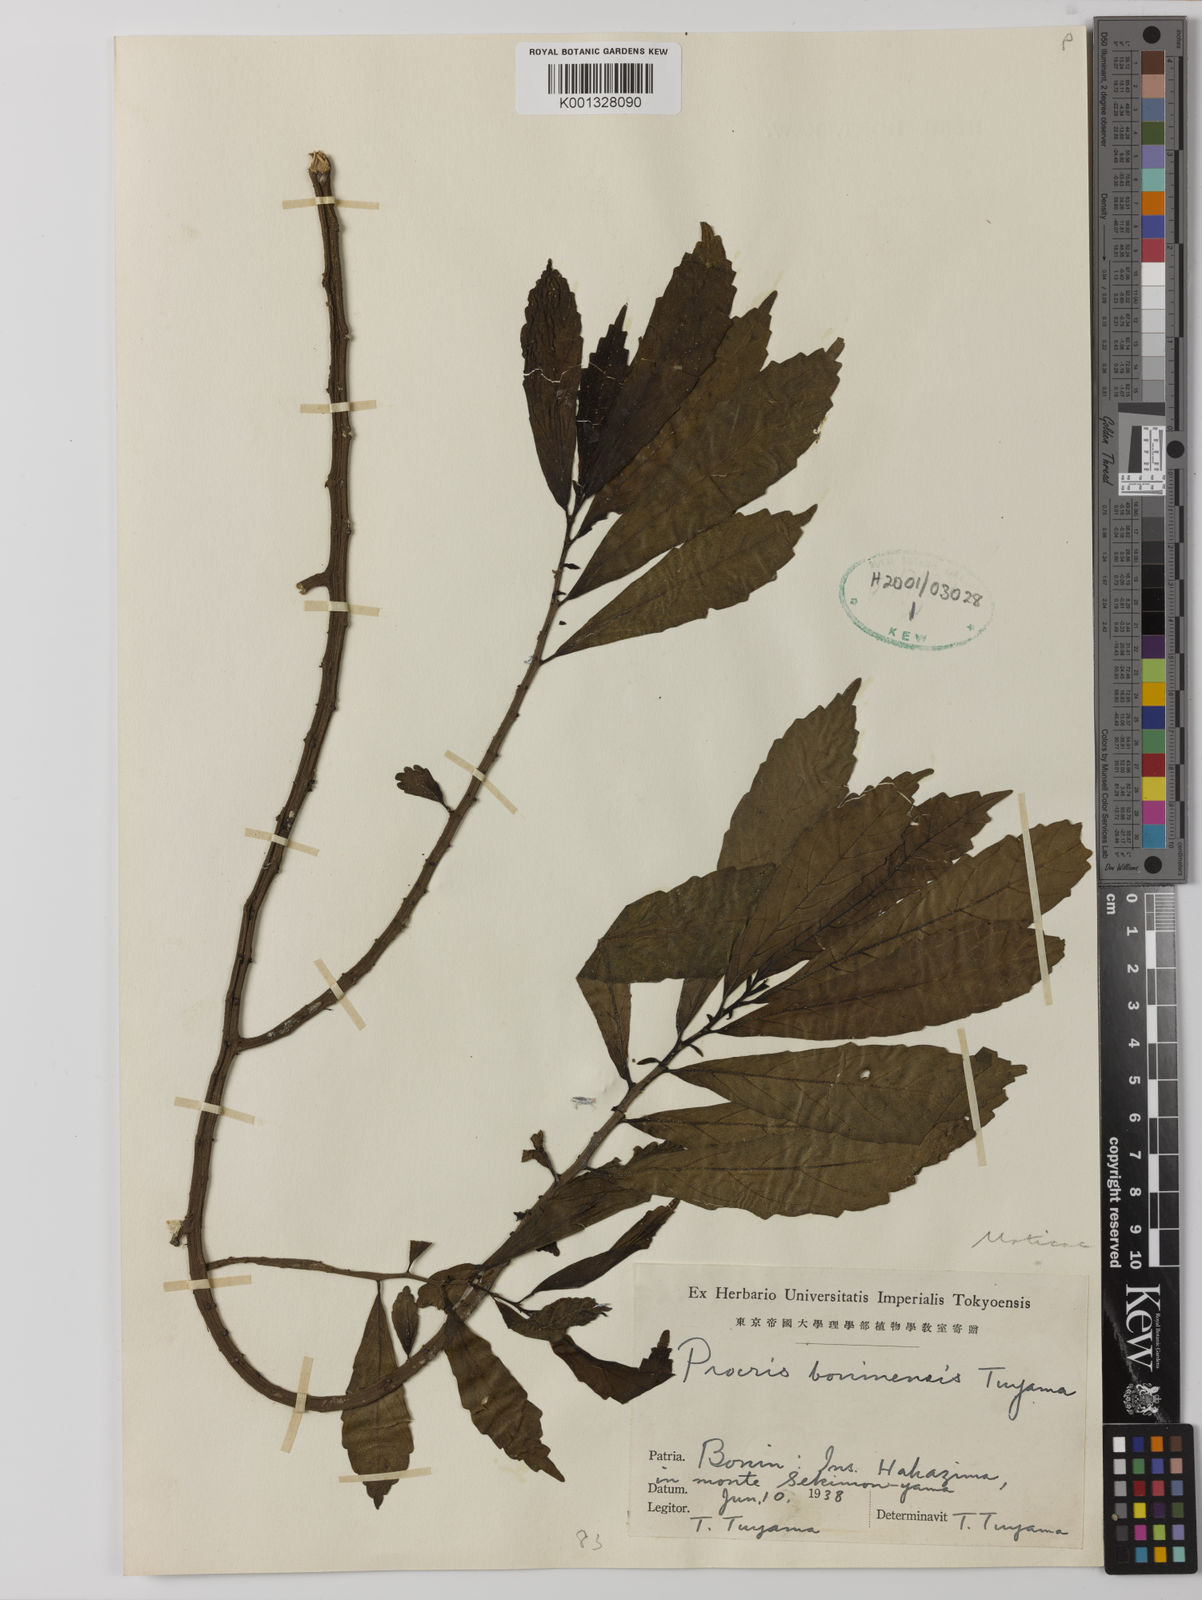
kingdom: Plantae
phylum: Tracheophyta
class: Magnoliopsida
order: Rosales
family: Urticaceae
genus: Procris
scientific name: Procris boninensis
